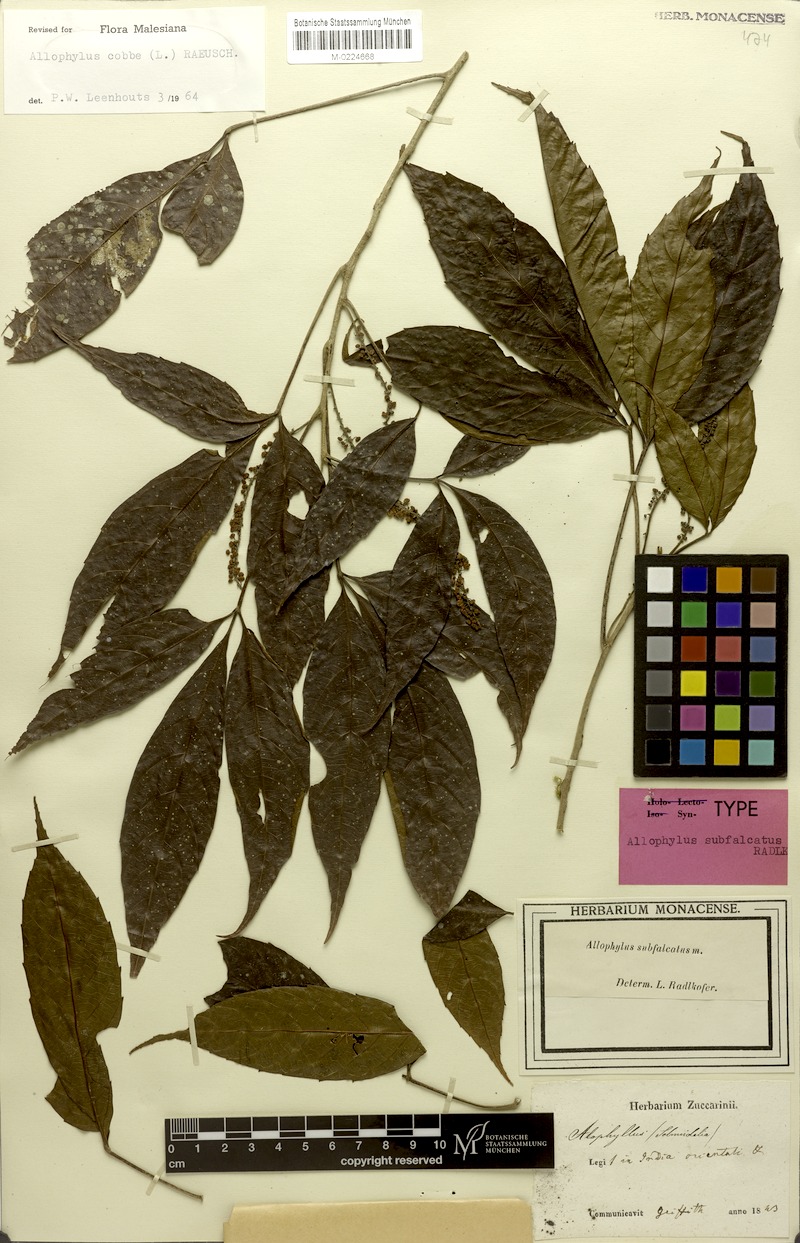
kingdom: Plantae
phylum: Tracheophyta
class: Magnoliopsida
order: Sapindales
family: Sapindaceae
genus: Allophylus
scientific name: Allophylus subfalcatus
